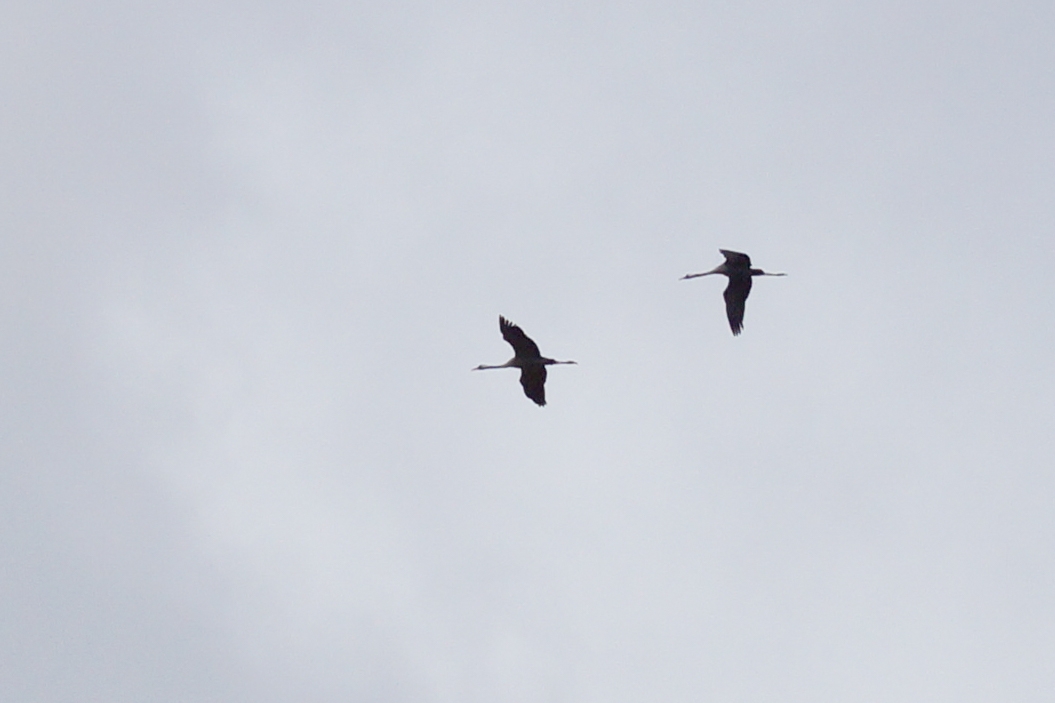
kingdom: Animalia
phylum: Chordata
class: Aves
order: Gruiformes
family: Gruidae
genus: Grus
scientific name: Grus grus
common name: Trane
